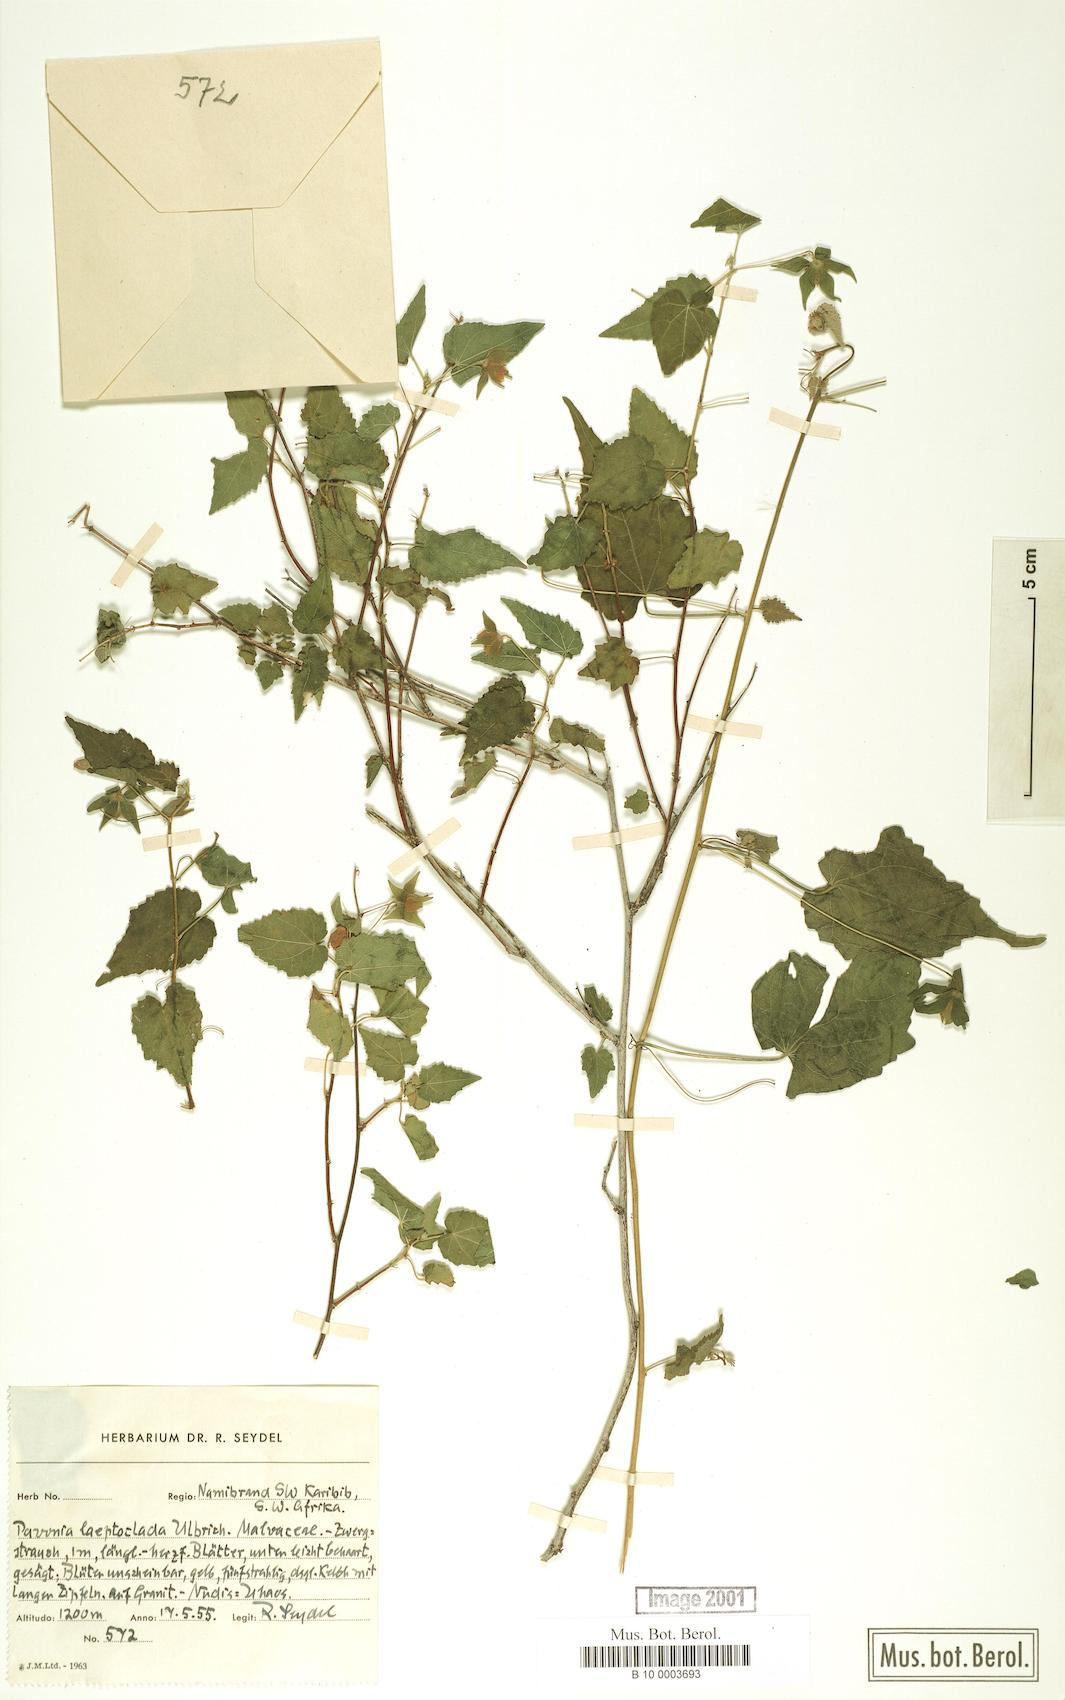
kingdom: Plantae
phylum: Tracheophyta
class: Magnoliopsida
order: Malvales
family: Malvaceae
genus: Pavonia
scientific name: Pavonia burchellii
